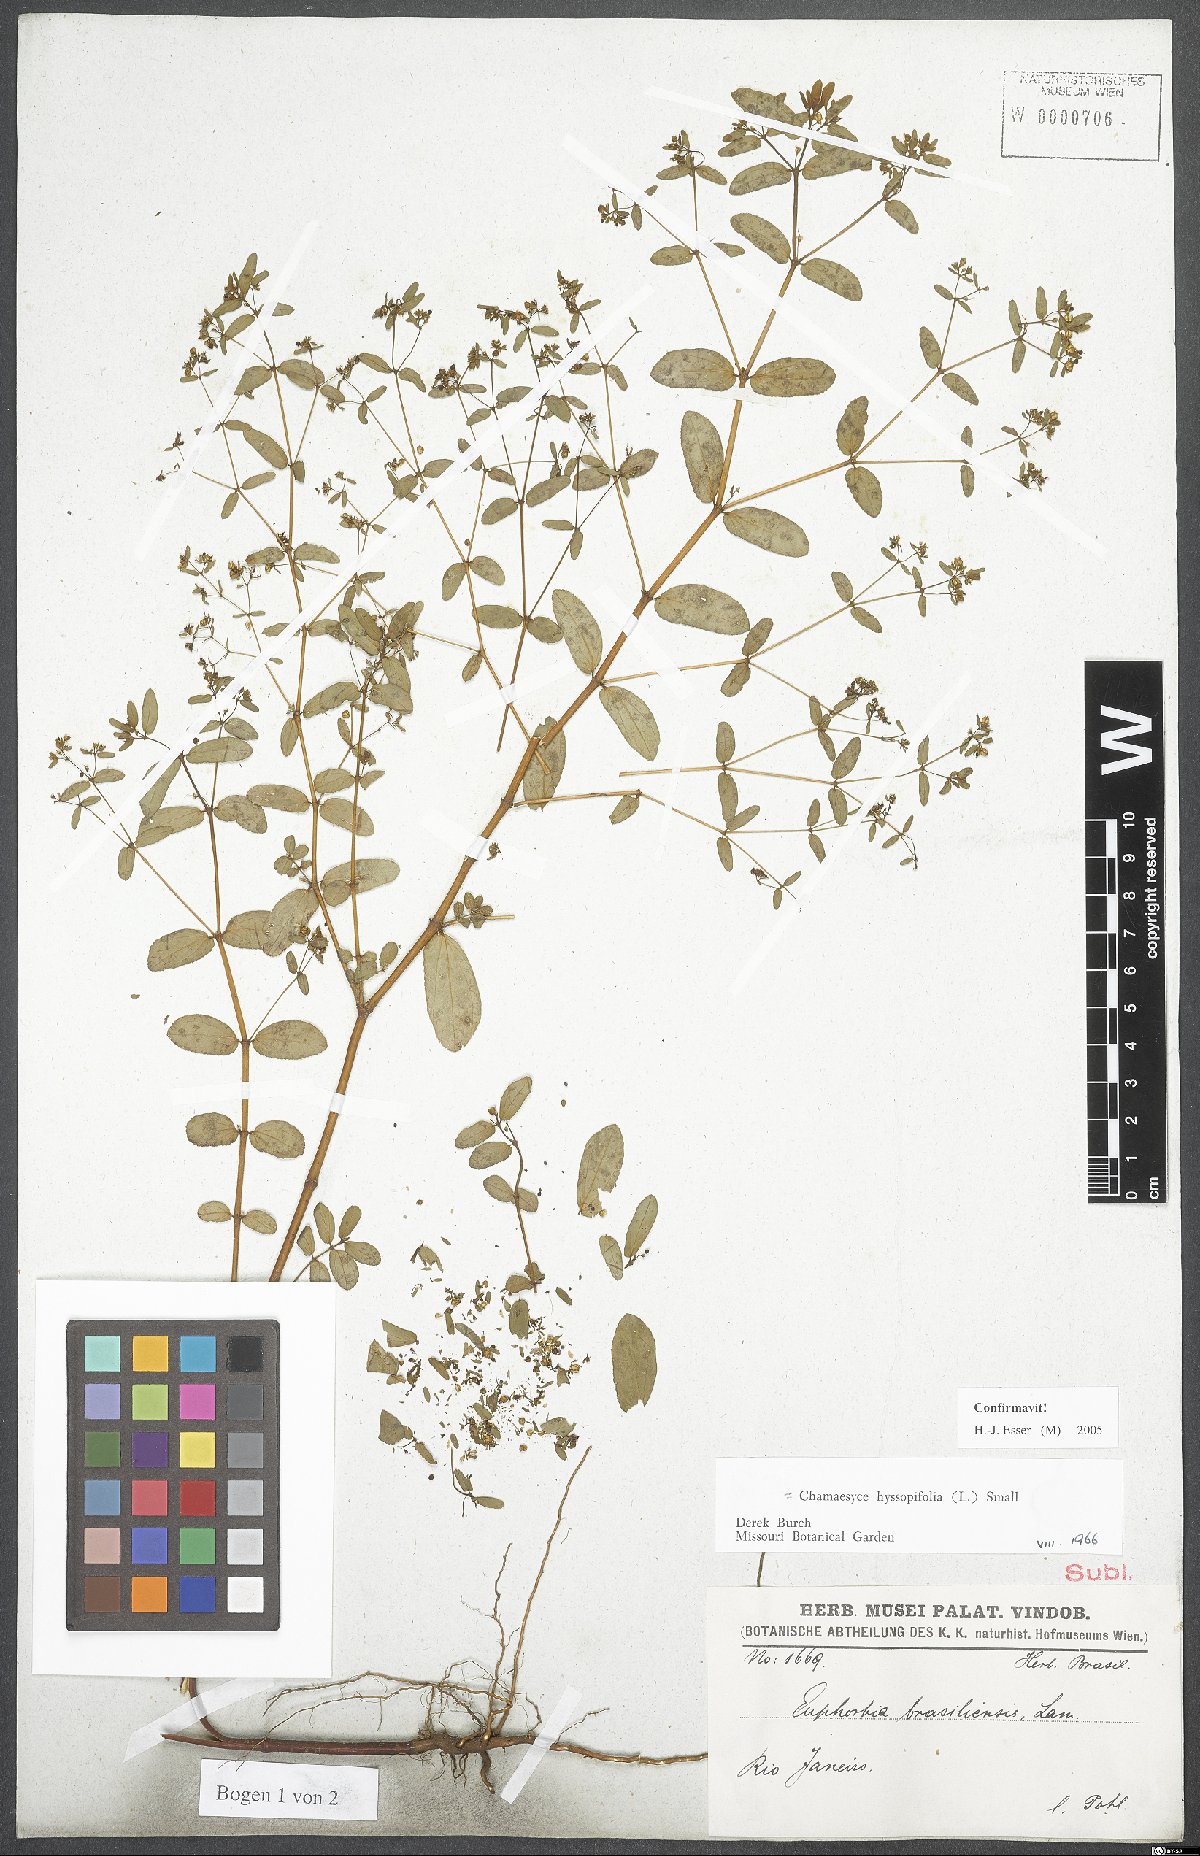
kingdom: Plantae
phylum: Tracheophyta
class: Magnoliopsida
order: Malpighiales
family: Euphorbiaceae
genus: Euphorbia
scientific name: Euphorbia hyssopifolia
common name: Hyssopleaf sandmat
